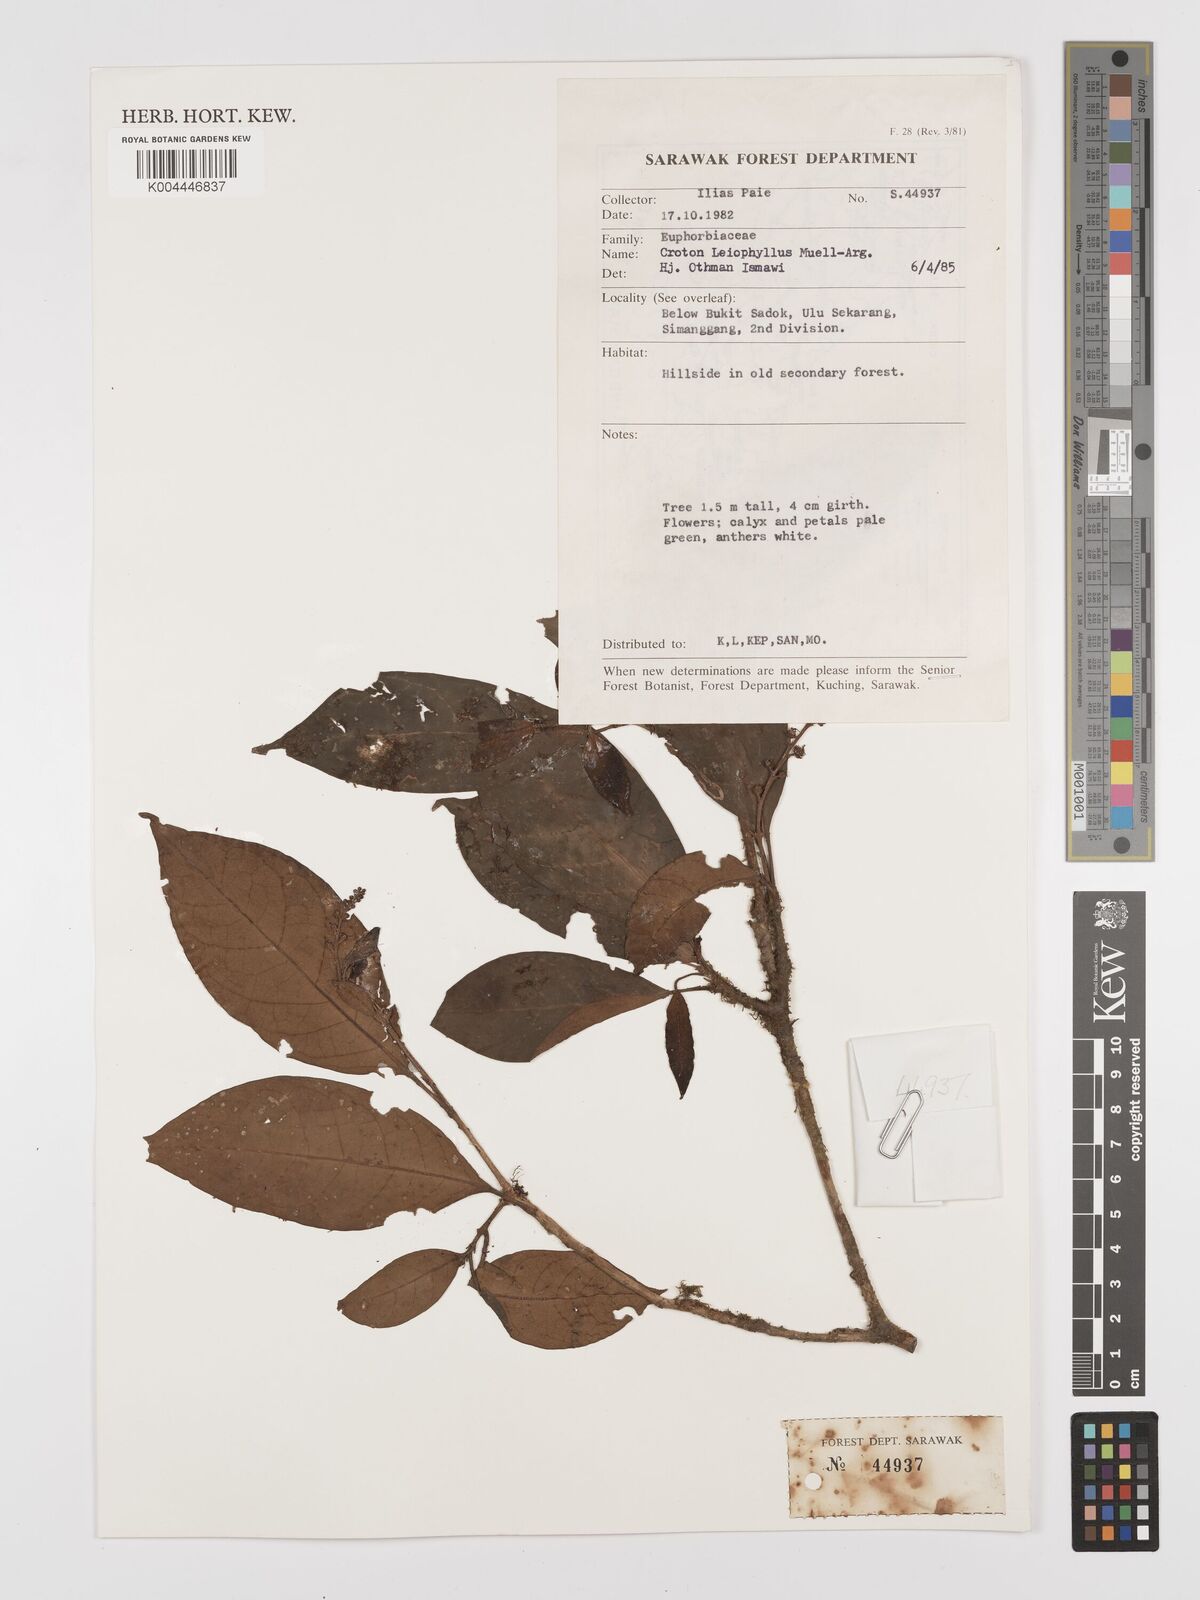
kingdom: Plantae
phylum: Tracheophyta
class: Magnoliopsida
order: Malpighiales
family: Euphorbiaceae
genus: Croton
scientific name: Croton leiophyllus
